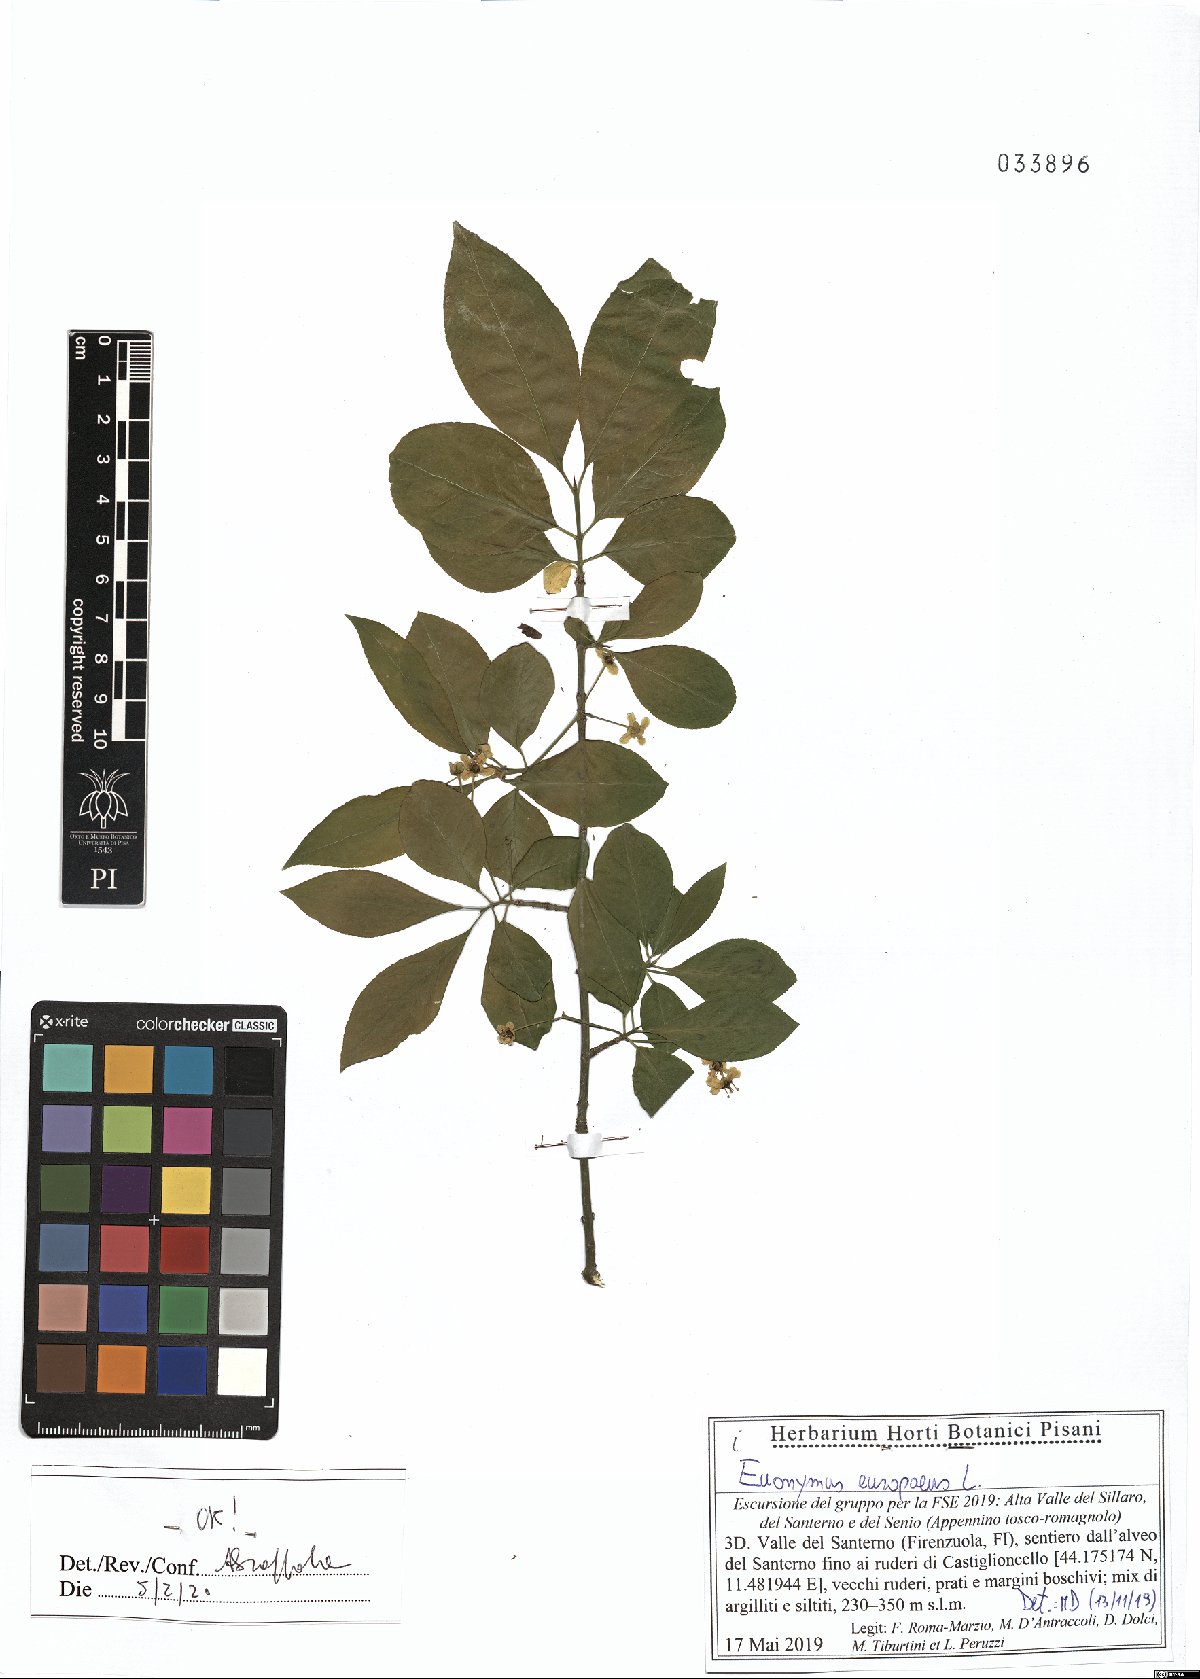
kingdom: Plantae
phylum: Tracheophyta
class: Magnoliopsida
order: Celastrales
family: Celastraceae
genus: Euonymus
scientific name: Euonymus europaeus
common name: Spindle
